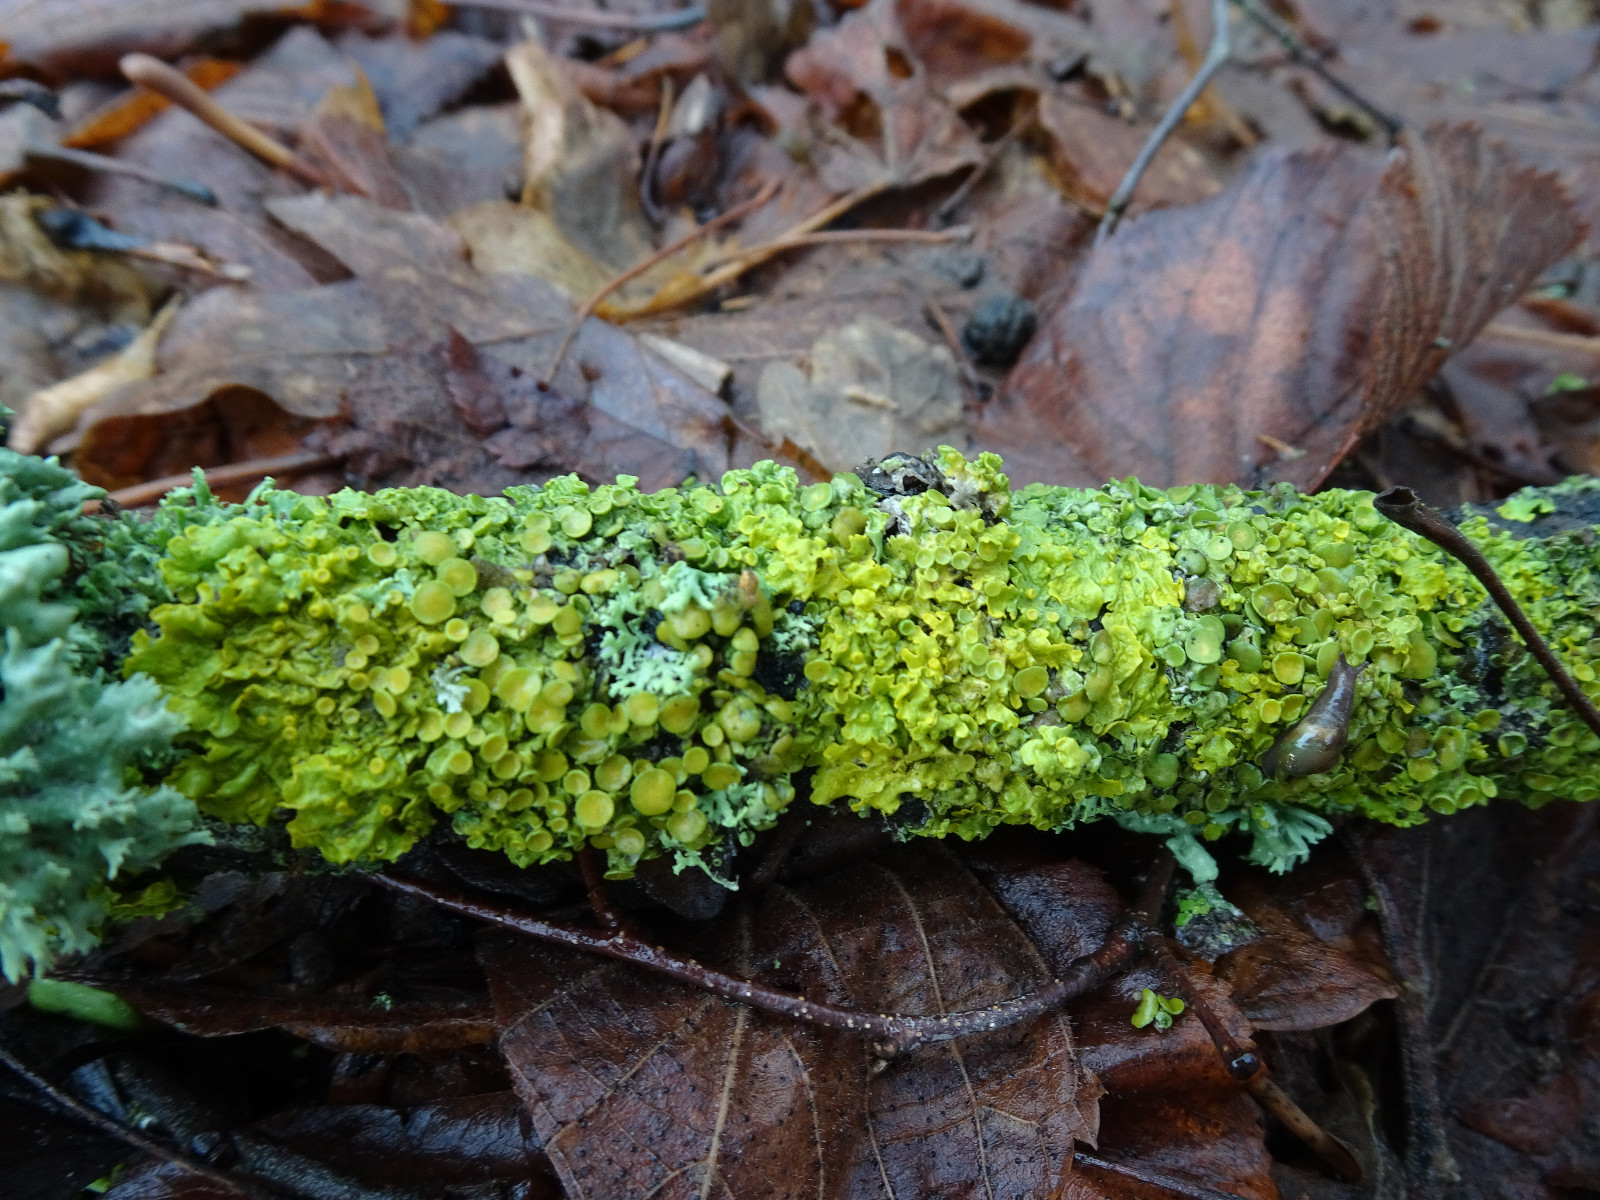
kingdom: Fungi
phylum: Ascomycota
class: Lecanoromycetes
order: Teloschistales
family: Teloschistaceae
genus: Xanthoria
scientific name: Xanthoria parietina
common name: almindelig væggelav
